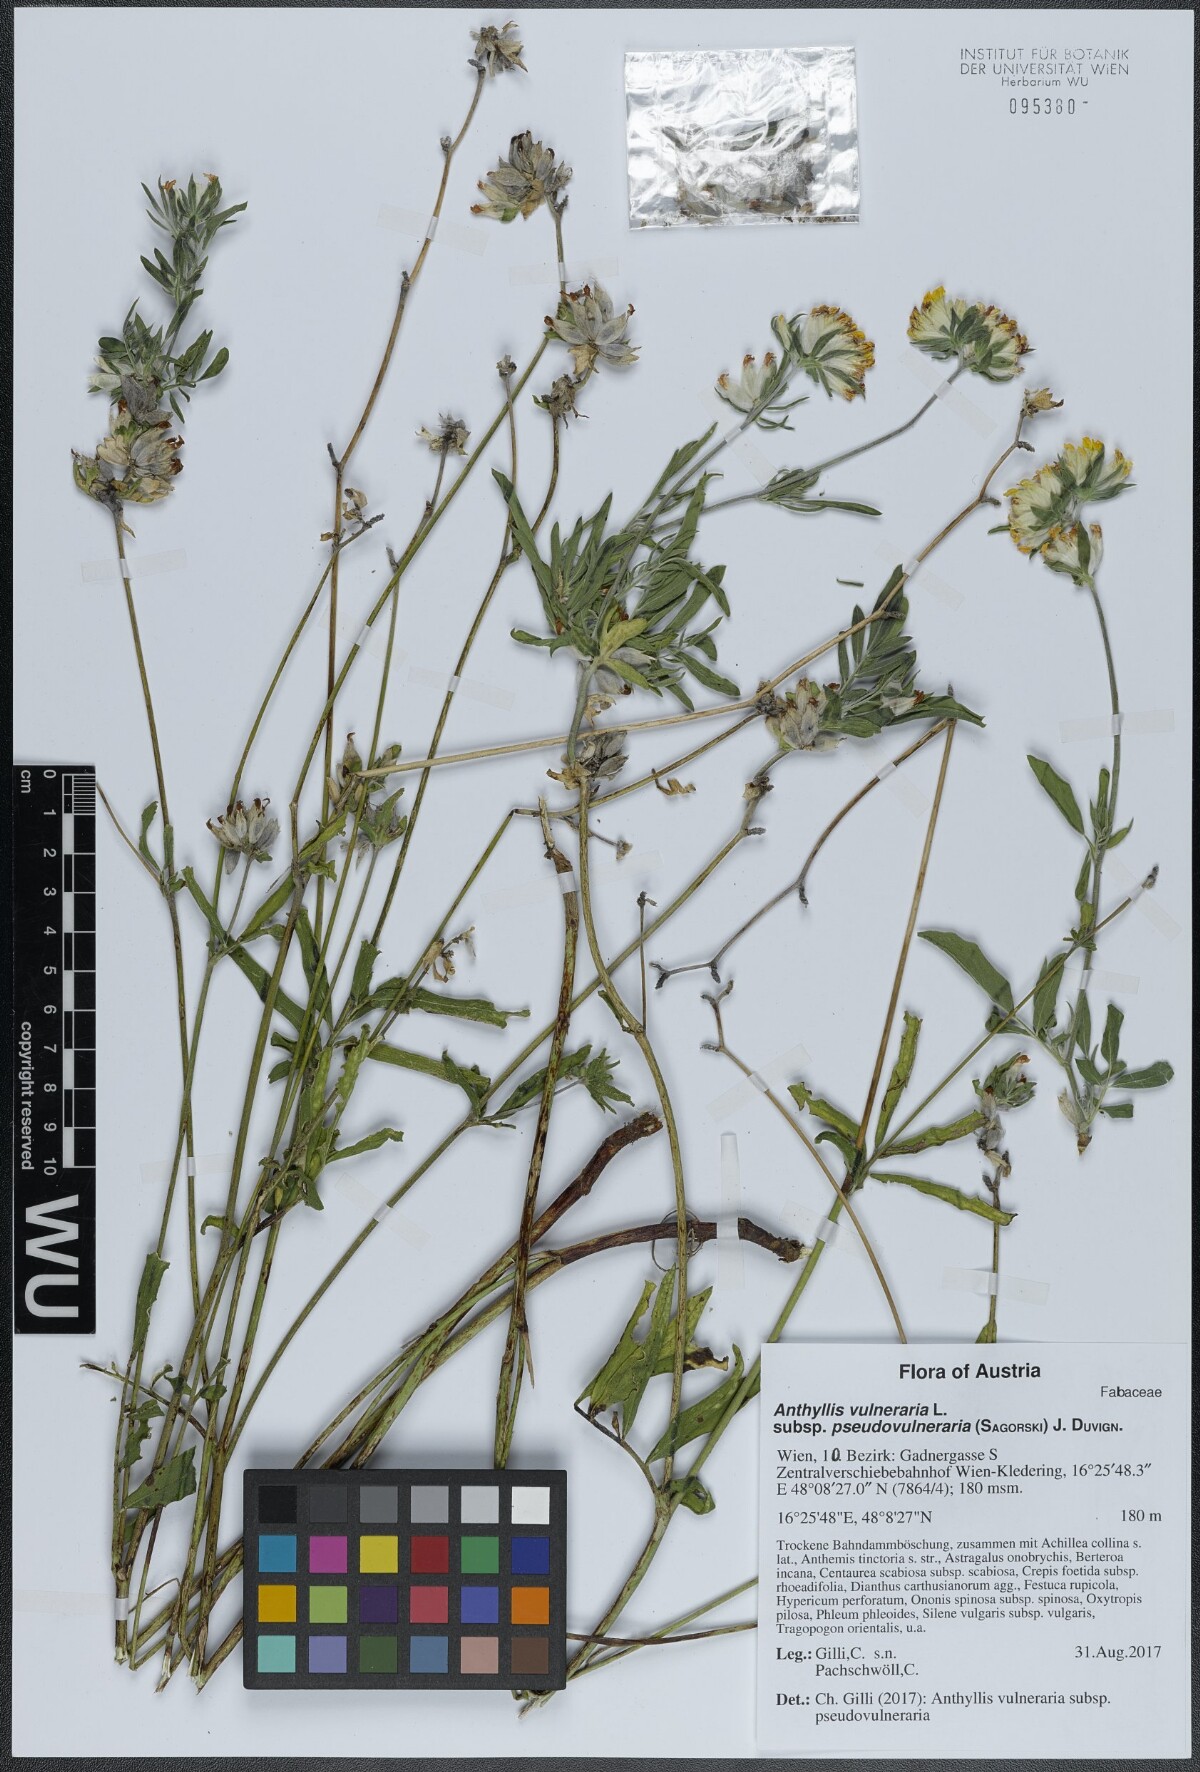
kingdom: Plantae
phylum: Tracheophyta
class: Magnoliopsida
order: Fabales
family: Fabaceae
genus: Anthyllis
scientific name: Anthyllis vulneraria
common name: Kidney vetch
